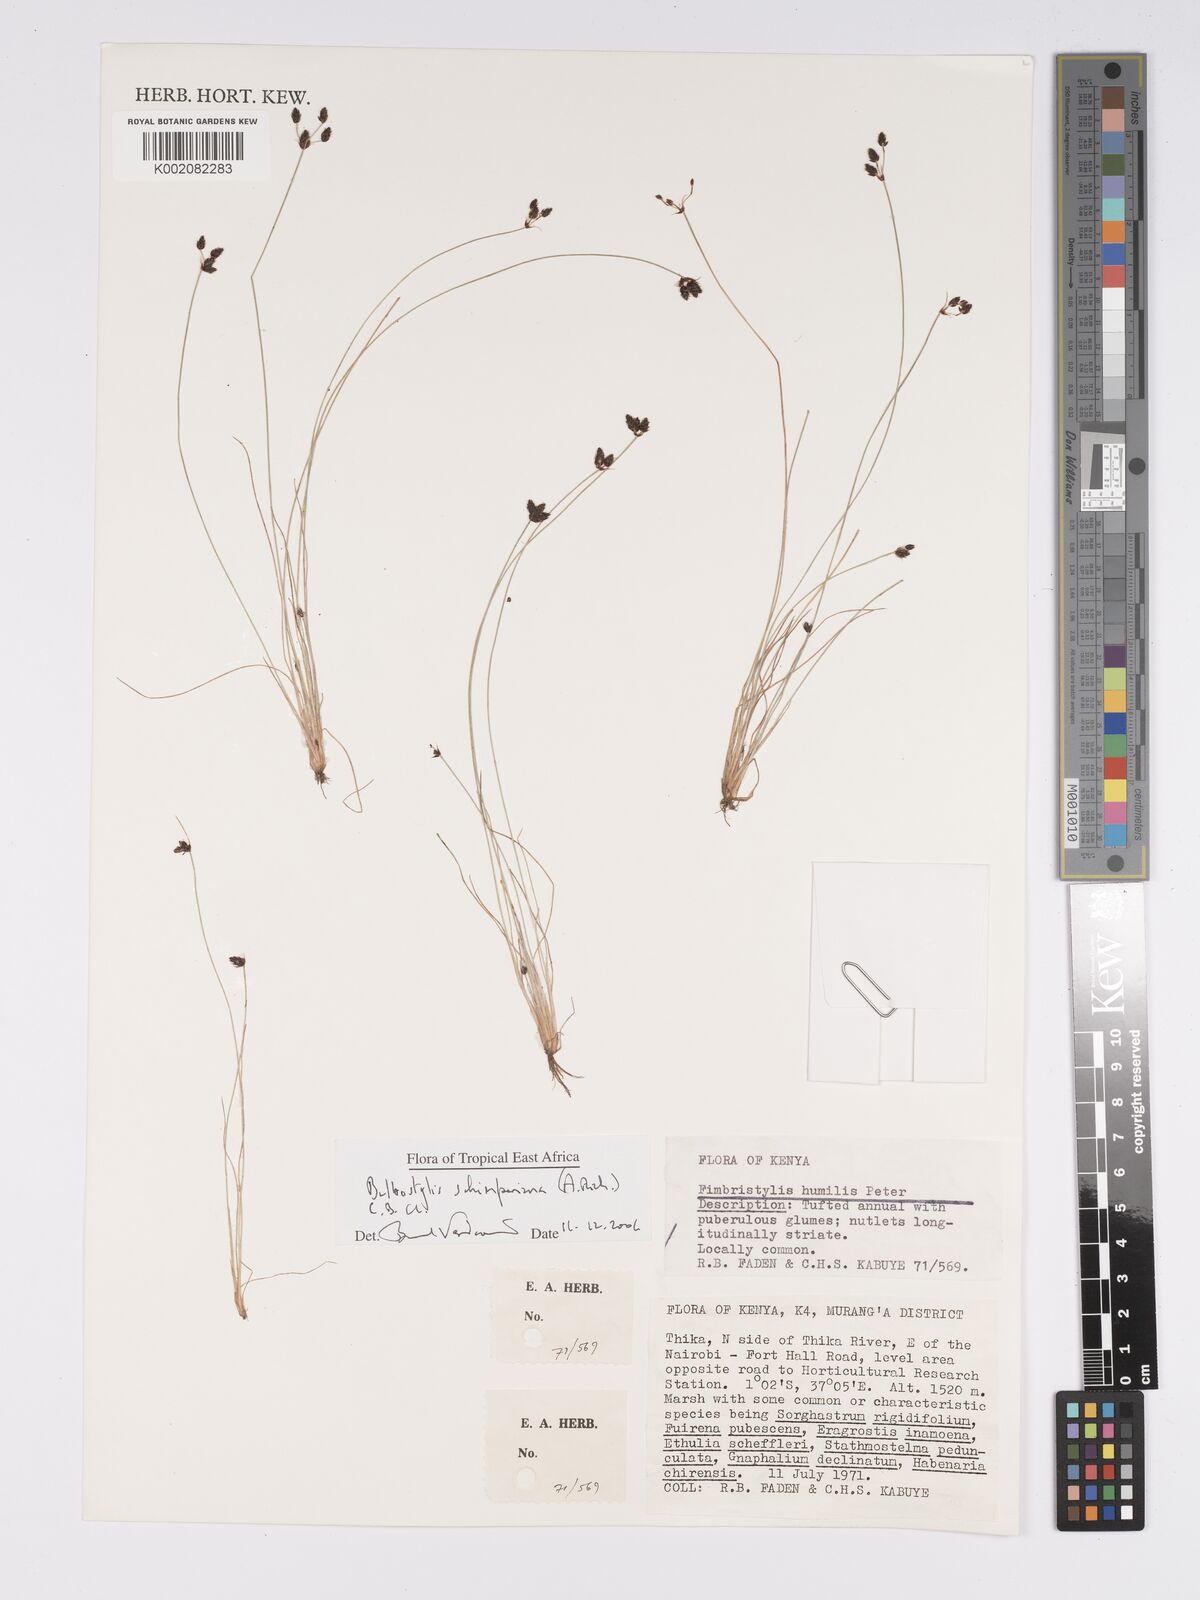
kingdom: Plantae
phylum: Tracheophyta
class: Liliopsida
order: Poales
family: Cyperaceae
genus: Bulbostylis
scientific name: Bulbostylis schimperiana
